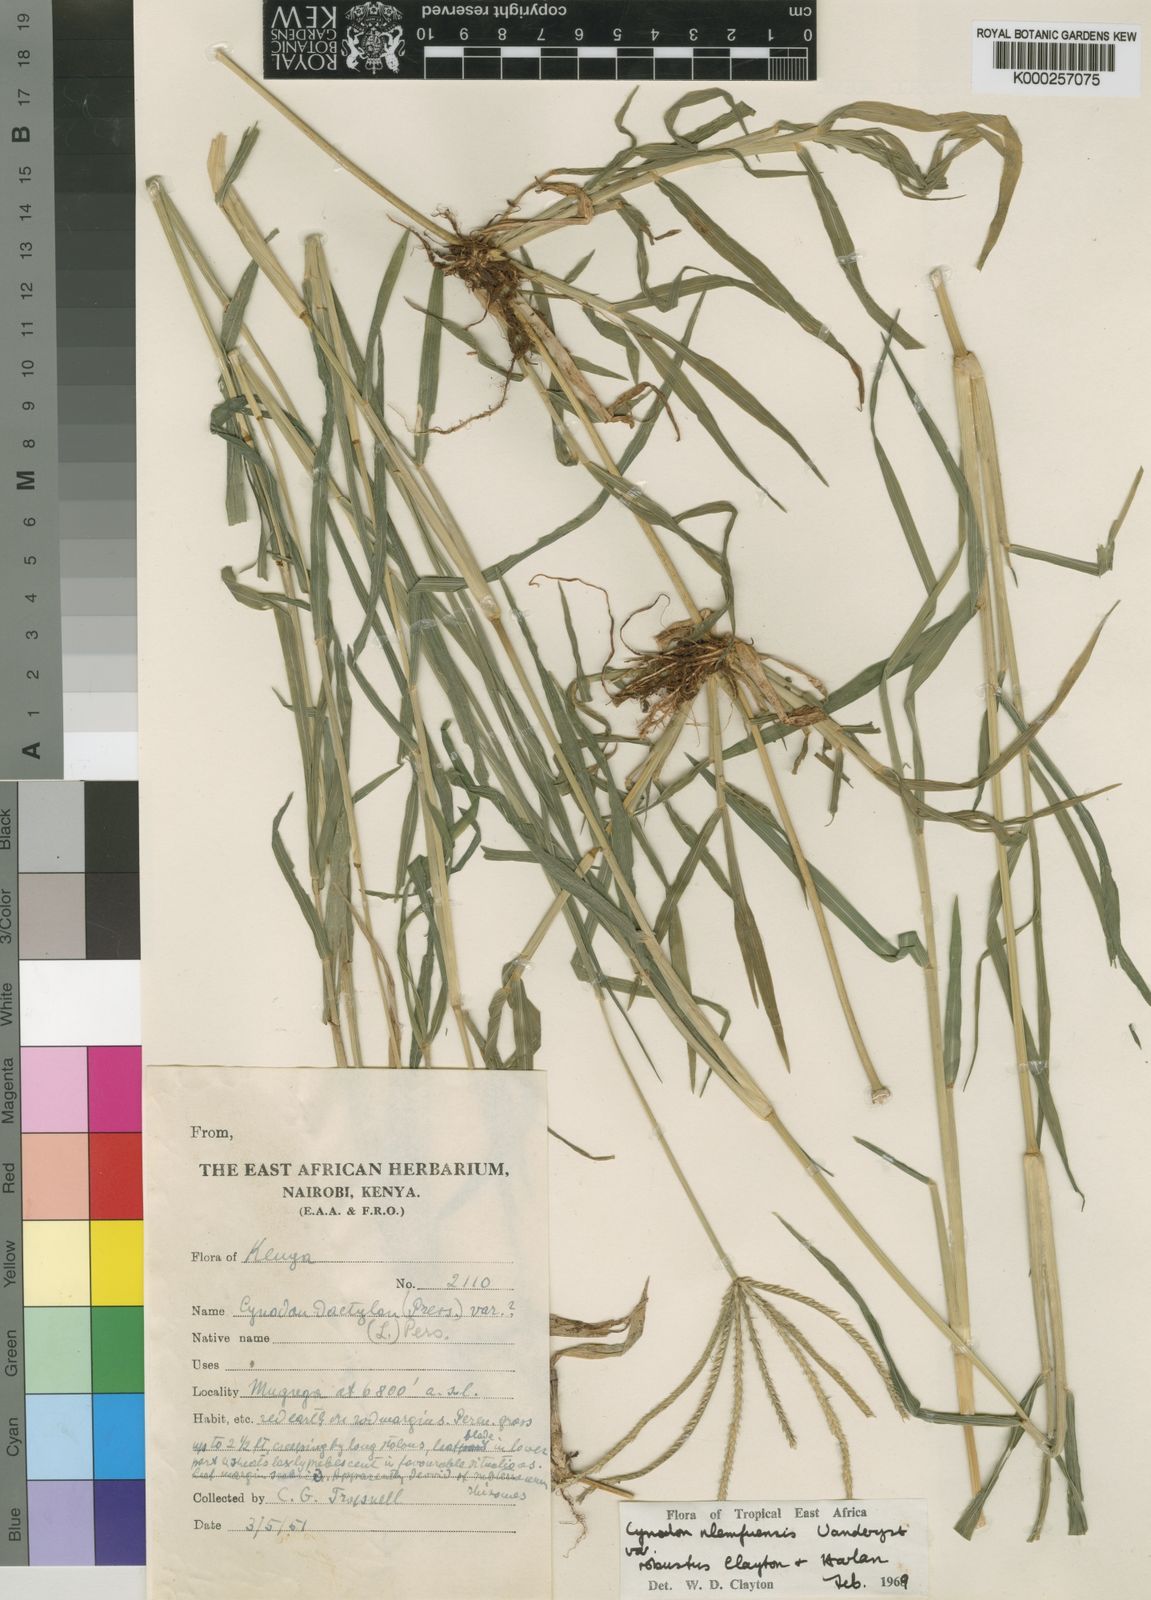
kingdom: Plantae
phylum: Tracheophyta
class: Liliopsida
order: Poales
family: Poaceae
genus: Cynodon
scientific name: Cynodon nlemfuensis
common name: African bermudagrass
